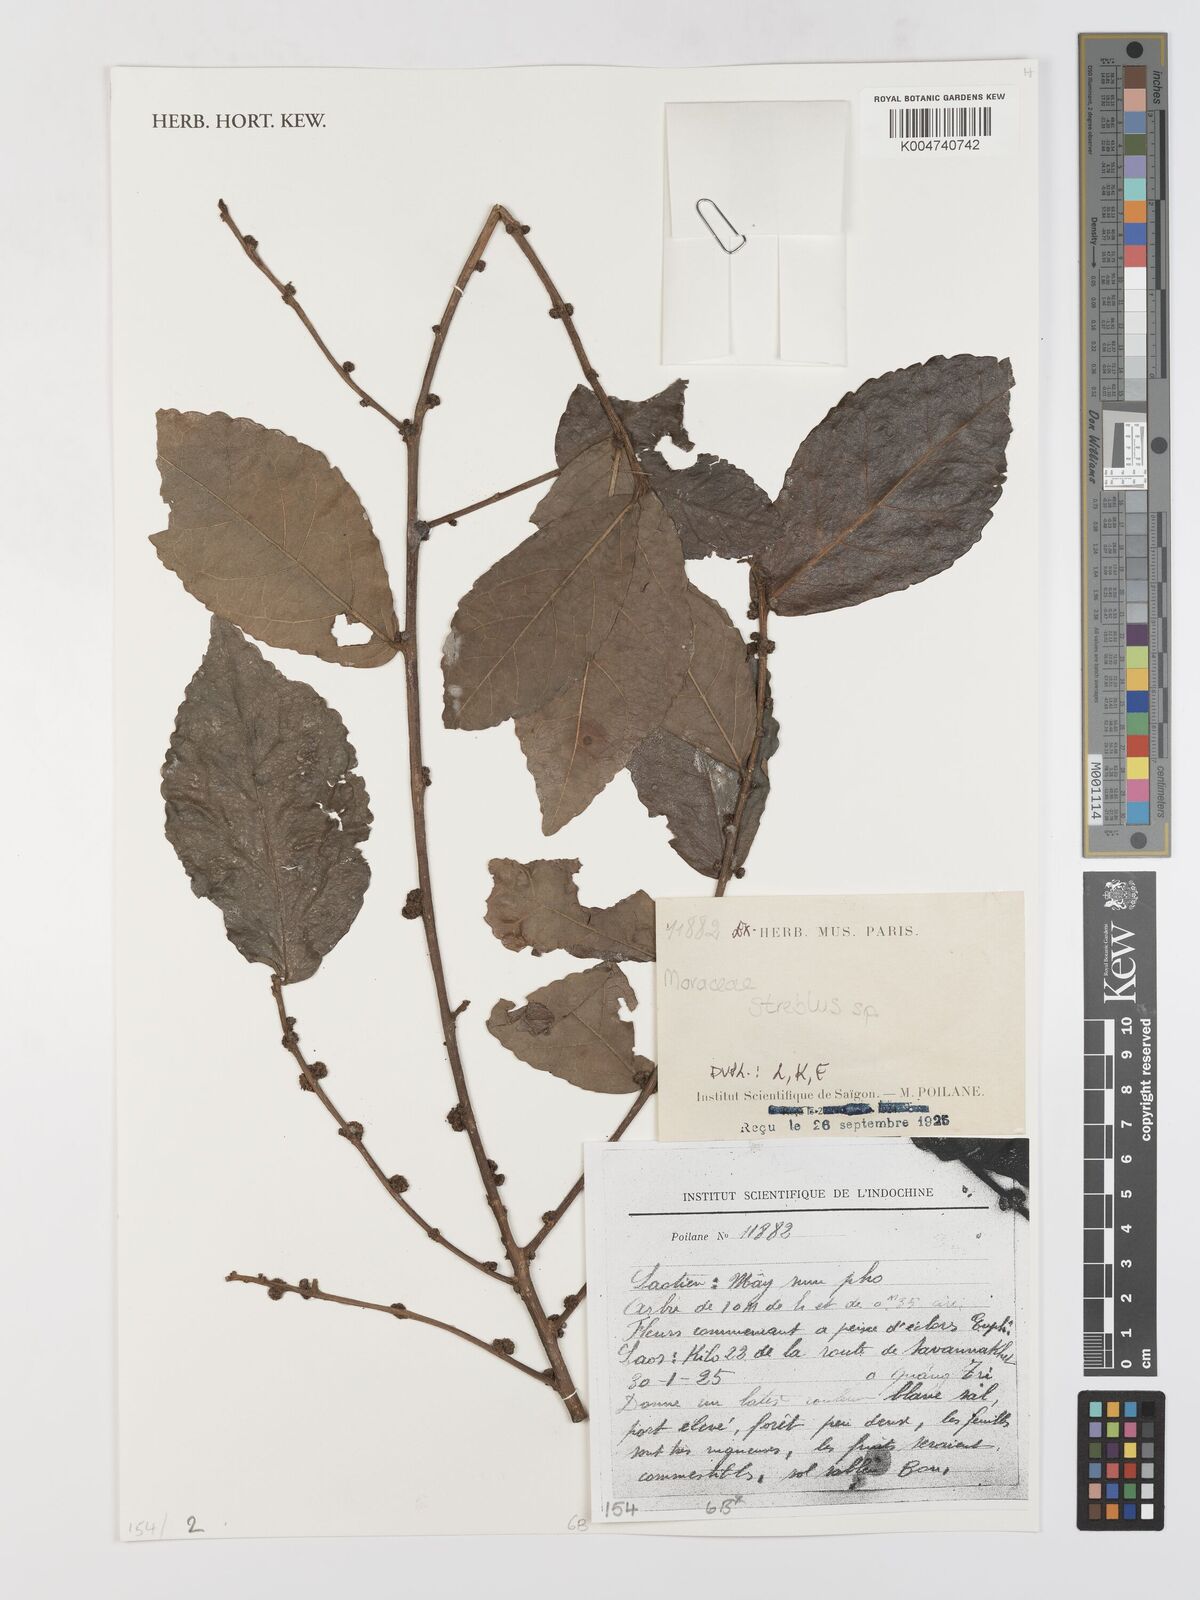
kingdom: Plantae
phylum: Tracheophyta
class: Magnoliopsida
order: Rosales
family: Moraceae
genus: Streblus
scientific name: Streblus
